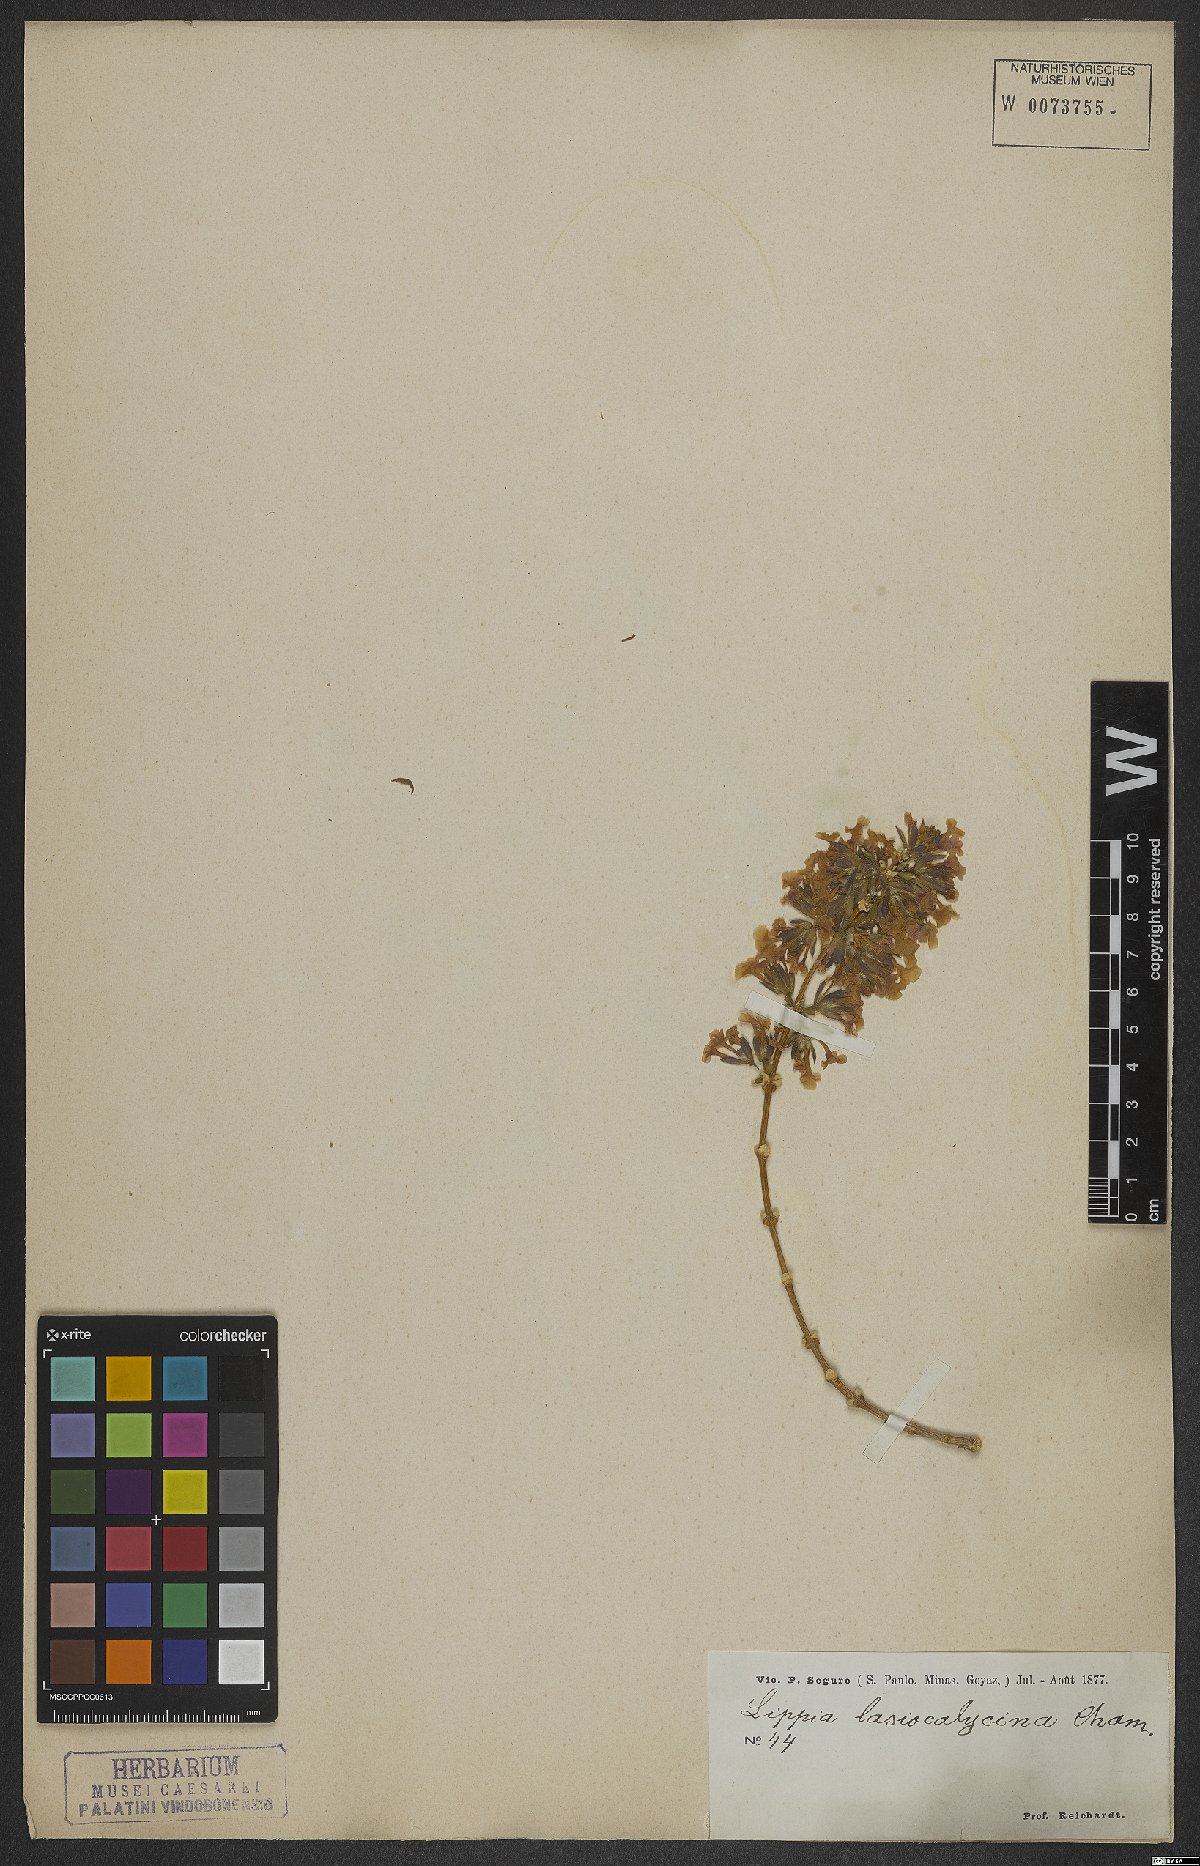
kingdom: Plantae
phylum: Tracheophyta
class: Magnoliopsida
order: Lamiales
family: Verbenaceae
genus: Lippia
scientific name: Lippia lasiocalycina
